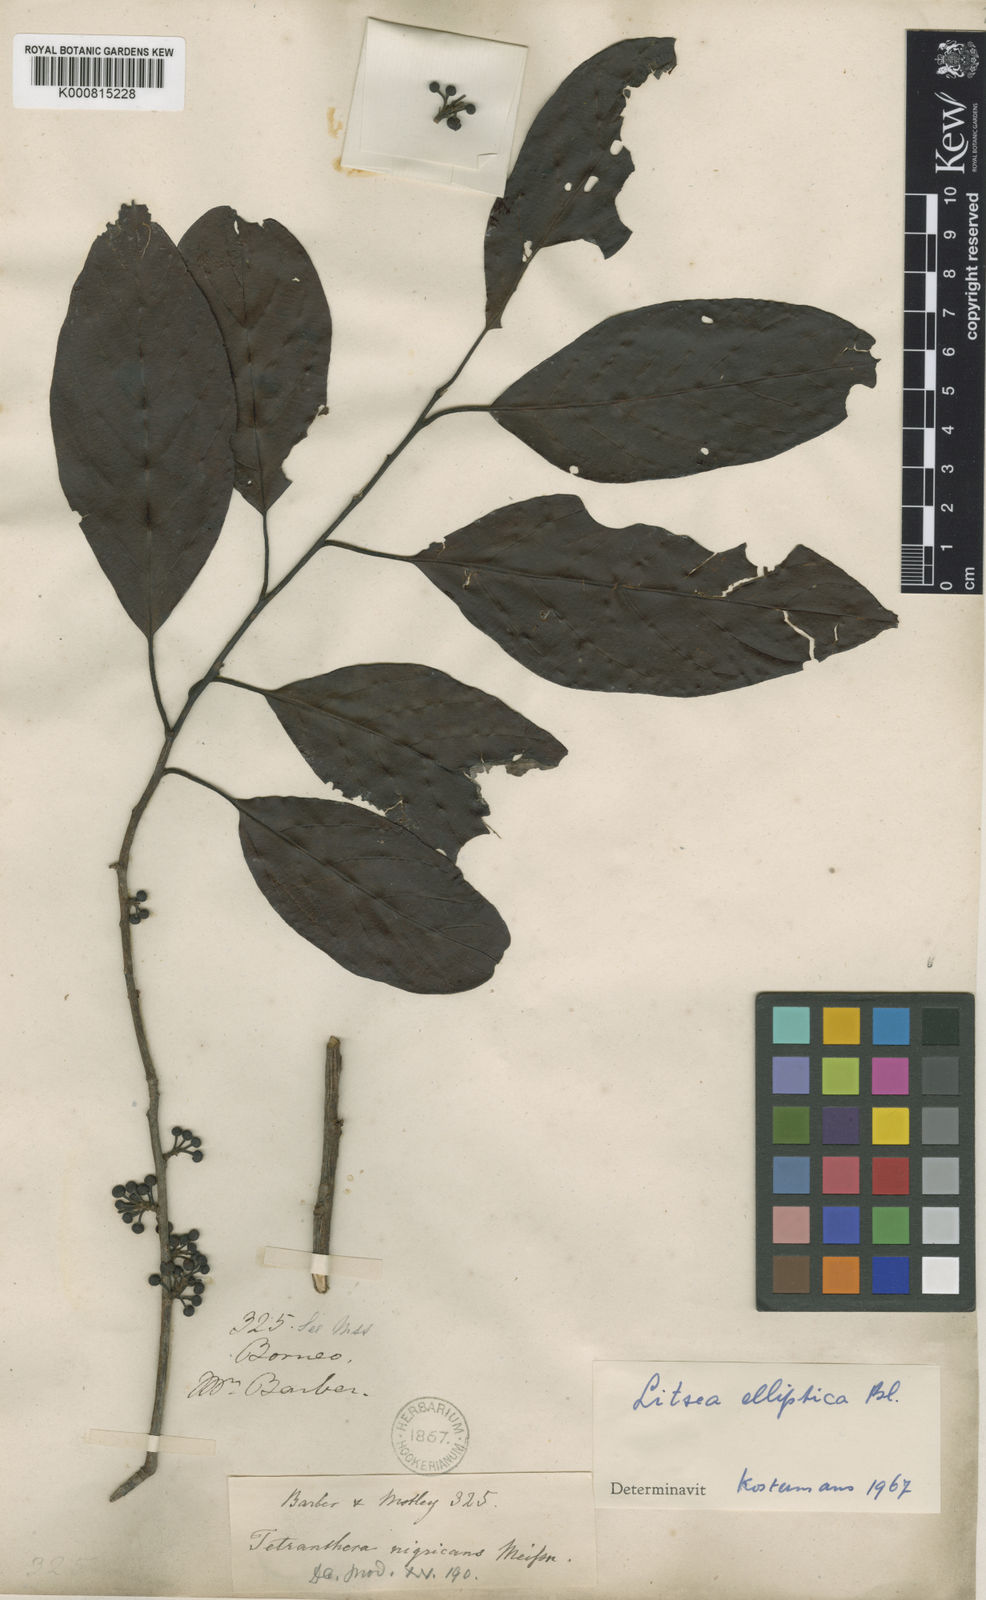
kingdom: Plantae
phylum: Tracheophyta
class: Magnoliopsida
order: Laurales
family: Lauraceae
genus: Litsea
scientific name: Litsea elliptica
